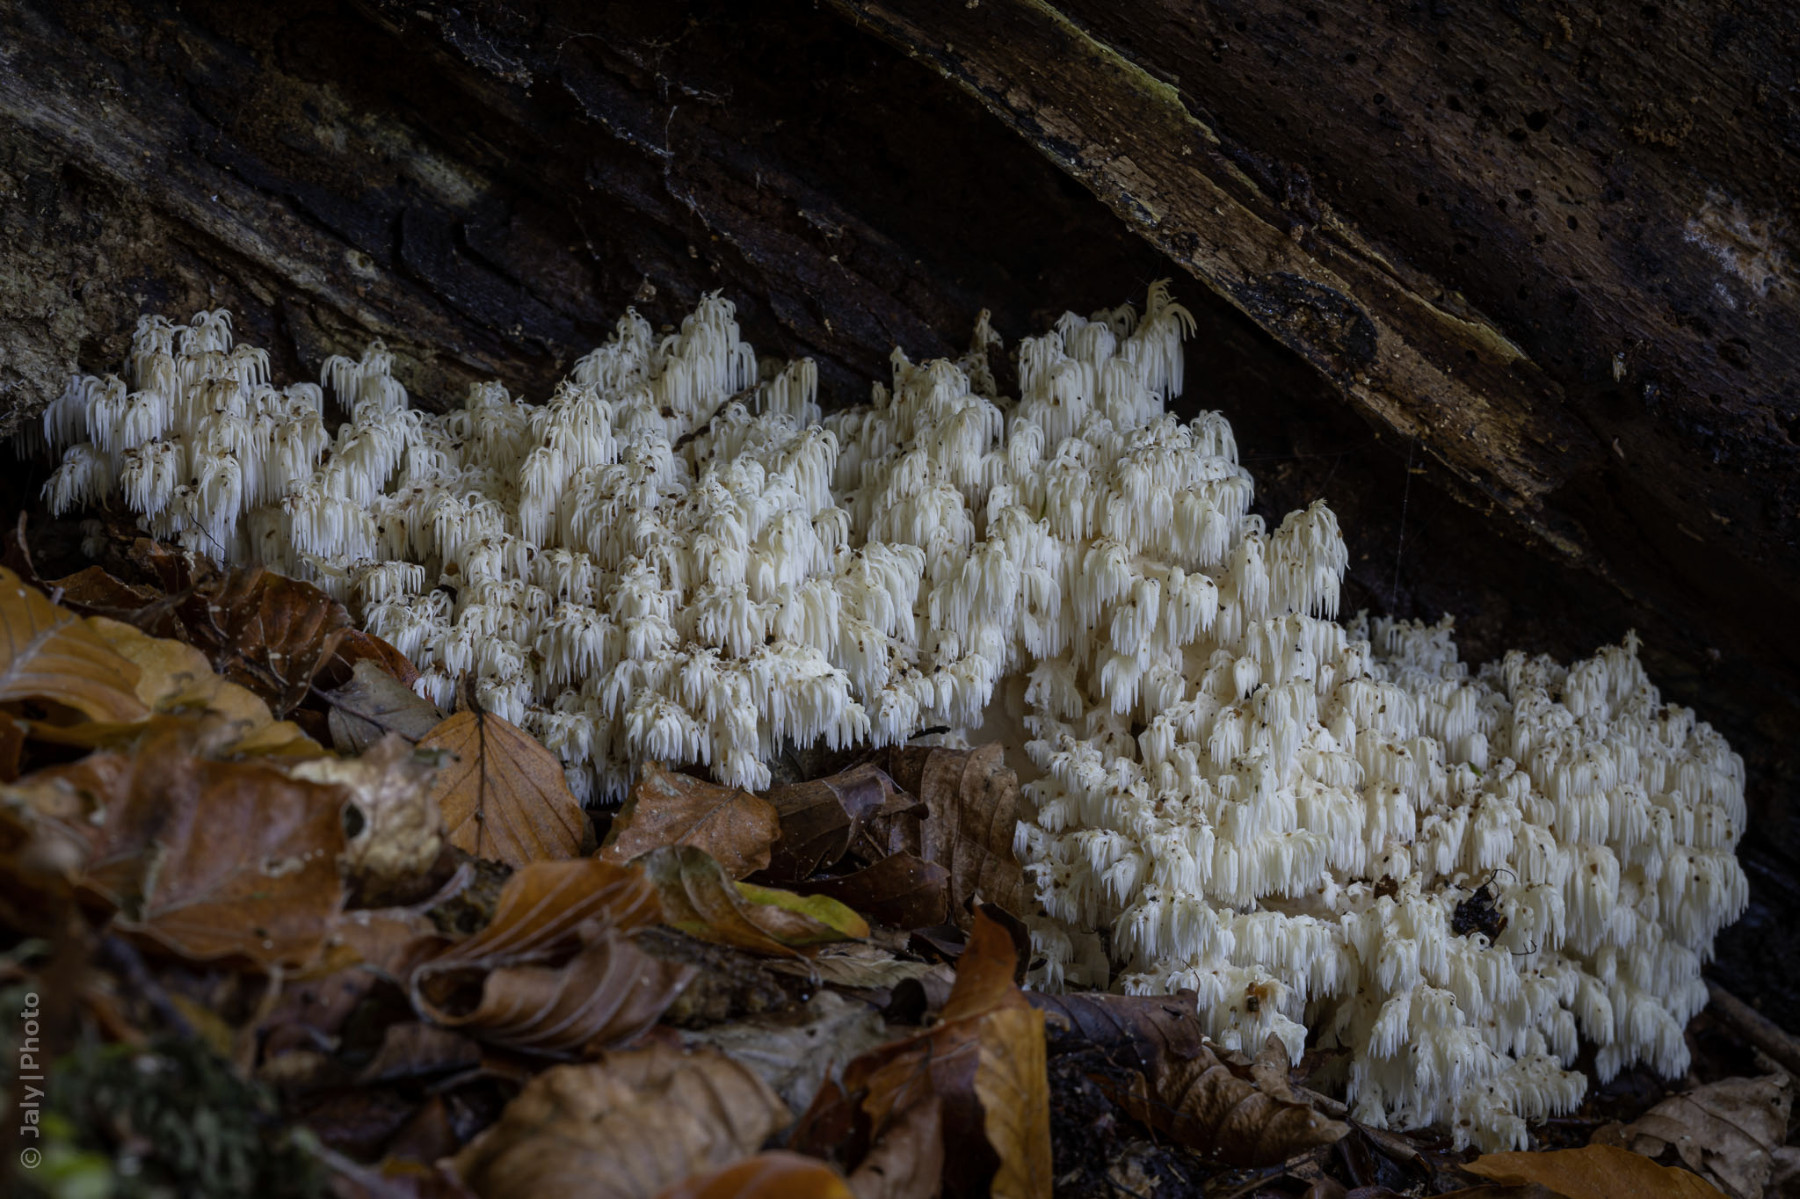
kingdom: Fungi
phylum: Basidiomycota
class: Agaricomycetes
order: Russulales
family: Hericiaceae
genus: Hericium
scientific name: Hericium coralloides
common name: koralpigsvamp
